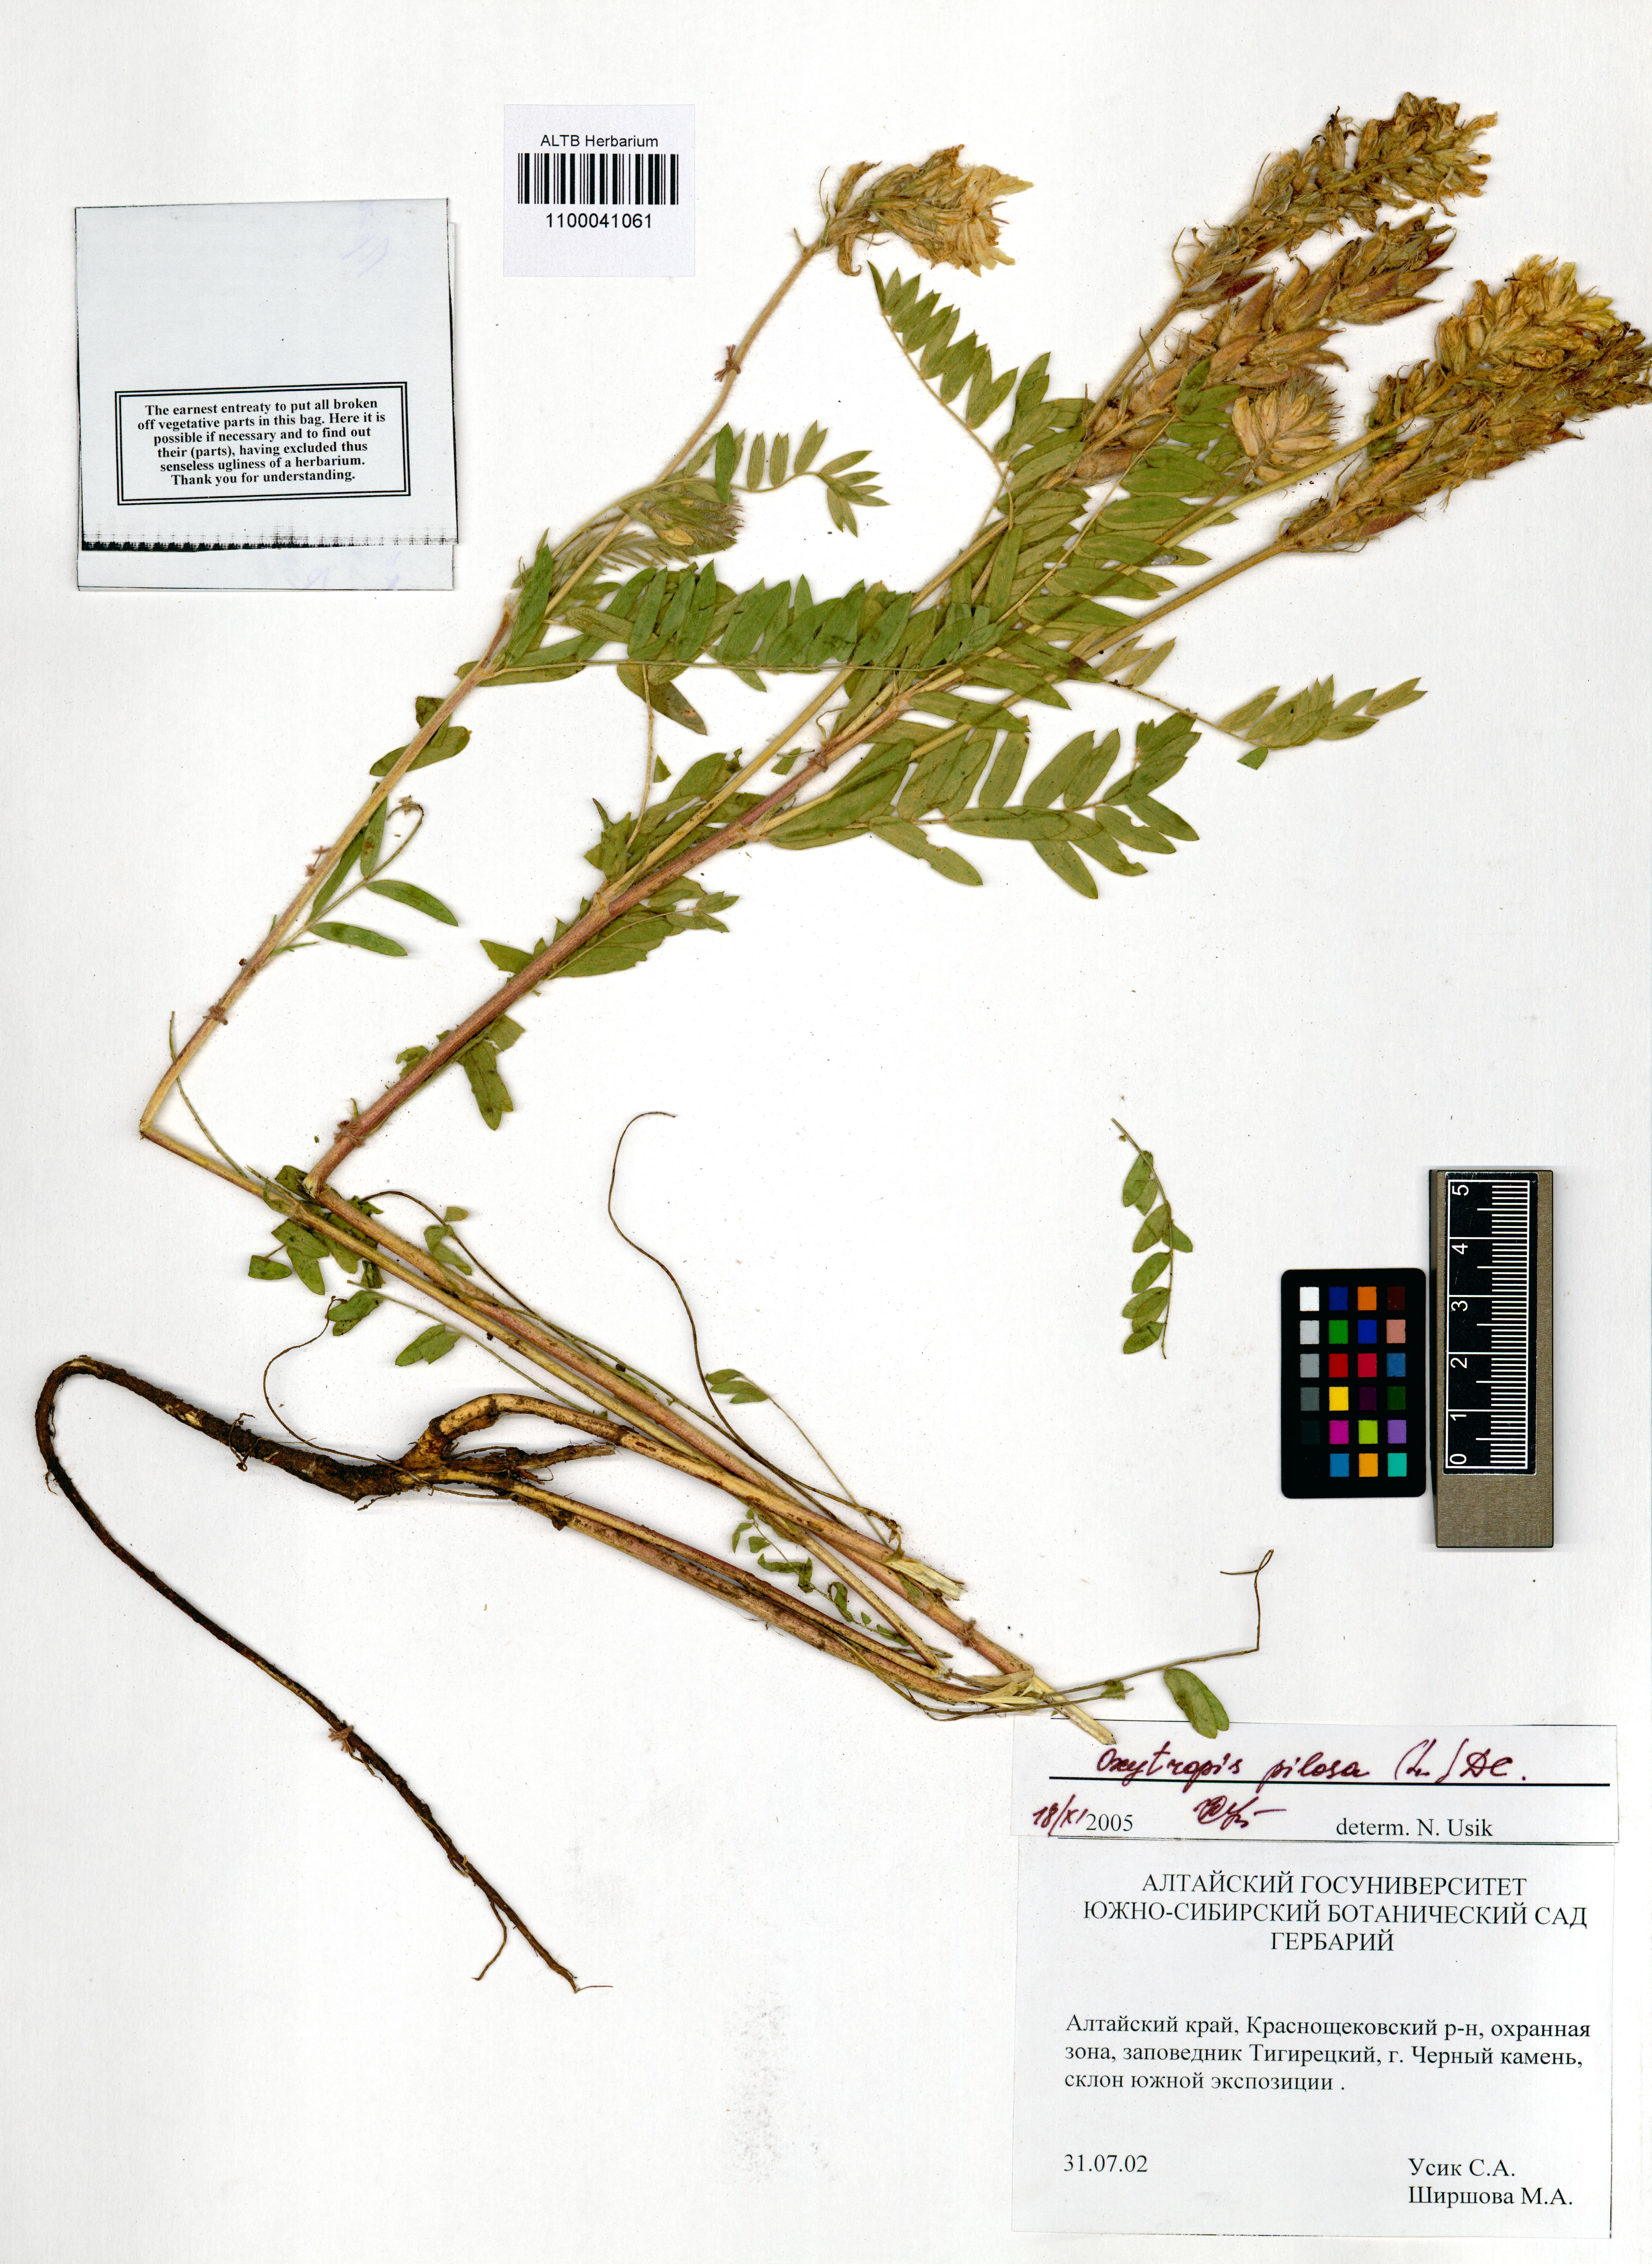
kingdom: Plantae
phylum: Tracheophyta
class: Magnoliopsida
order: Fabales
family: Fabaceae
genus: Oxytropis
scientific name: Oxytropis pilosa
